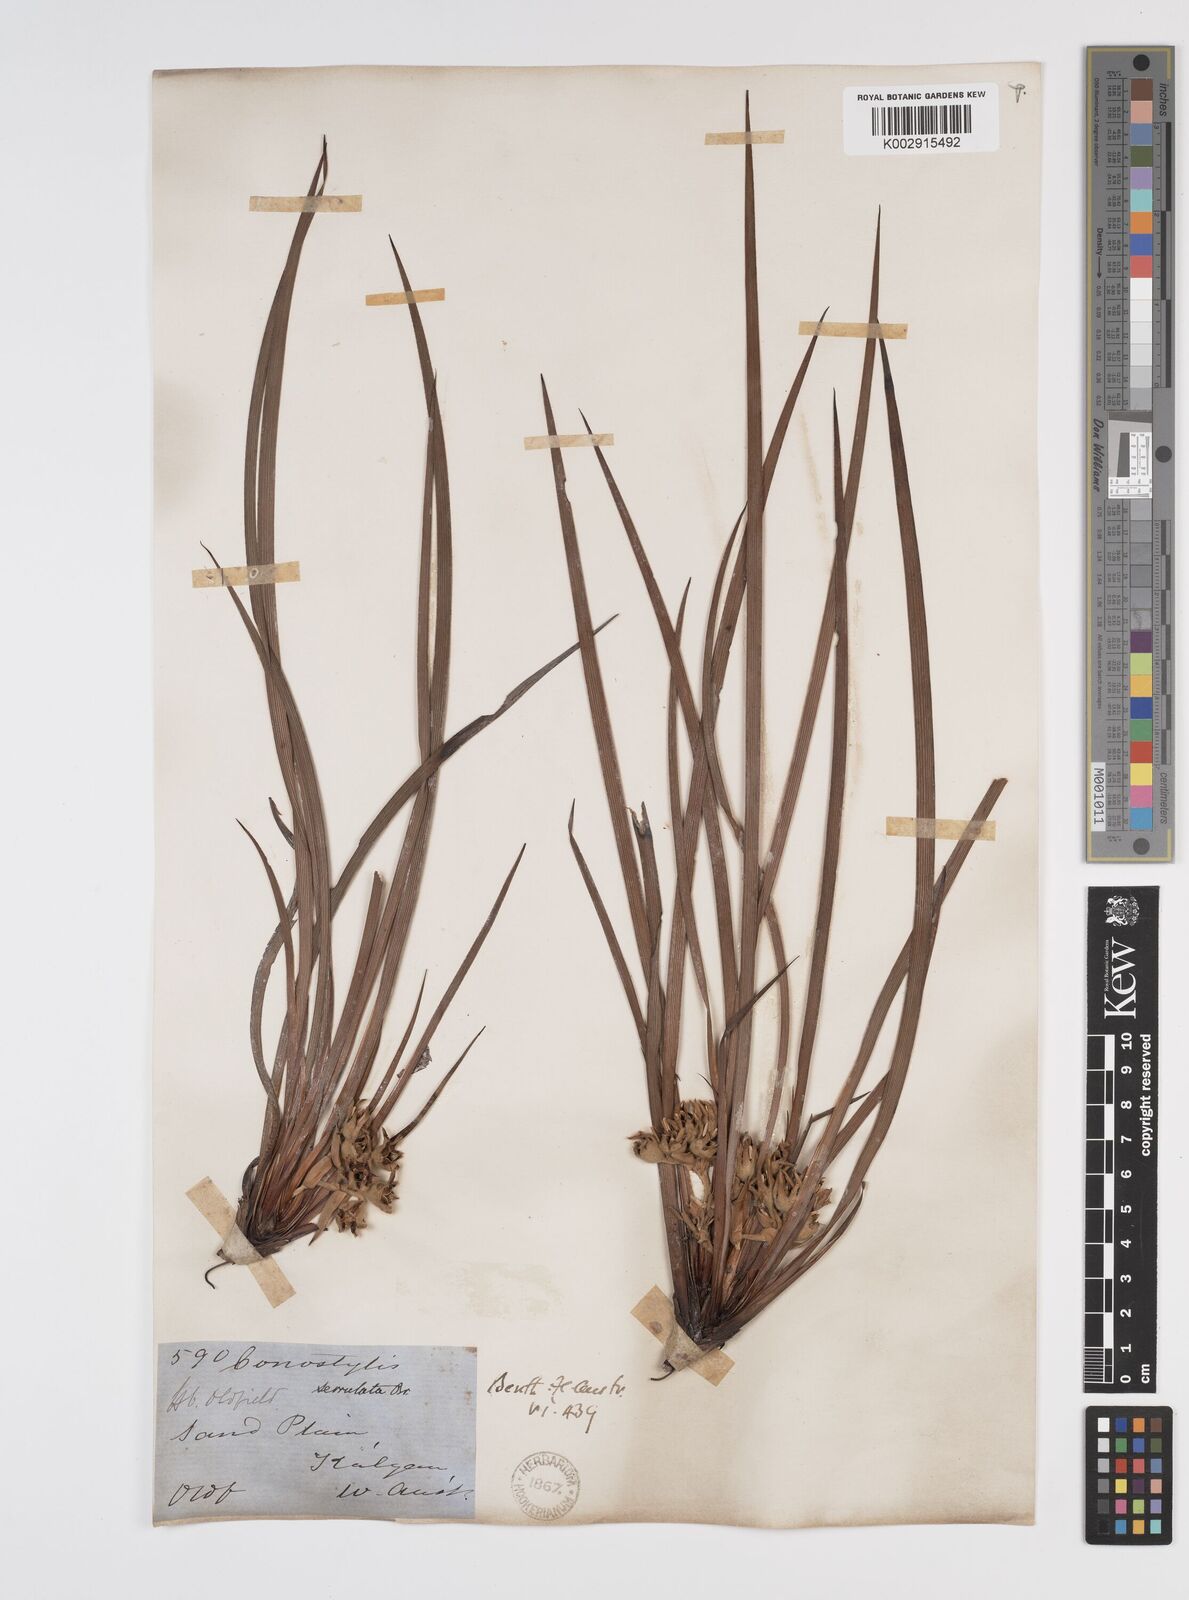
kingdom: Plantae
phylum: Tracheophyta
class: Liliopsida
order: Commelinales
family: Haemodoraceae
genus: Conostylis
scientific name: Conostylis serrulata
